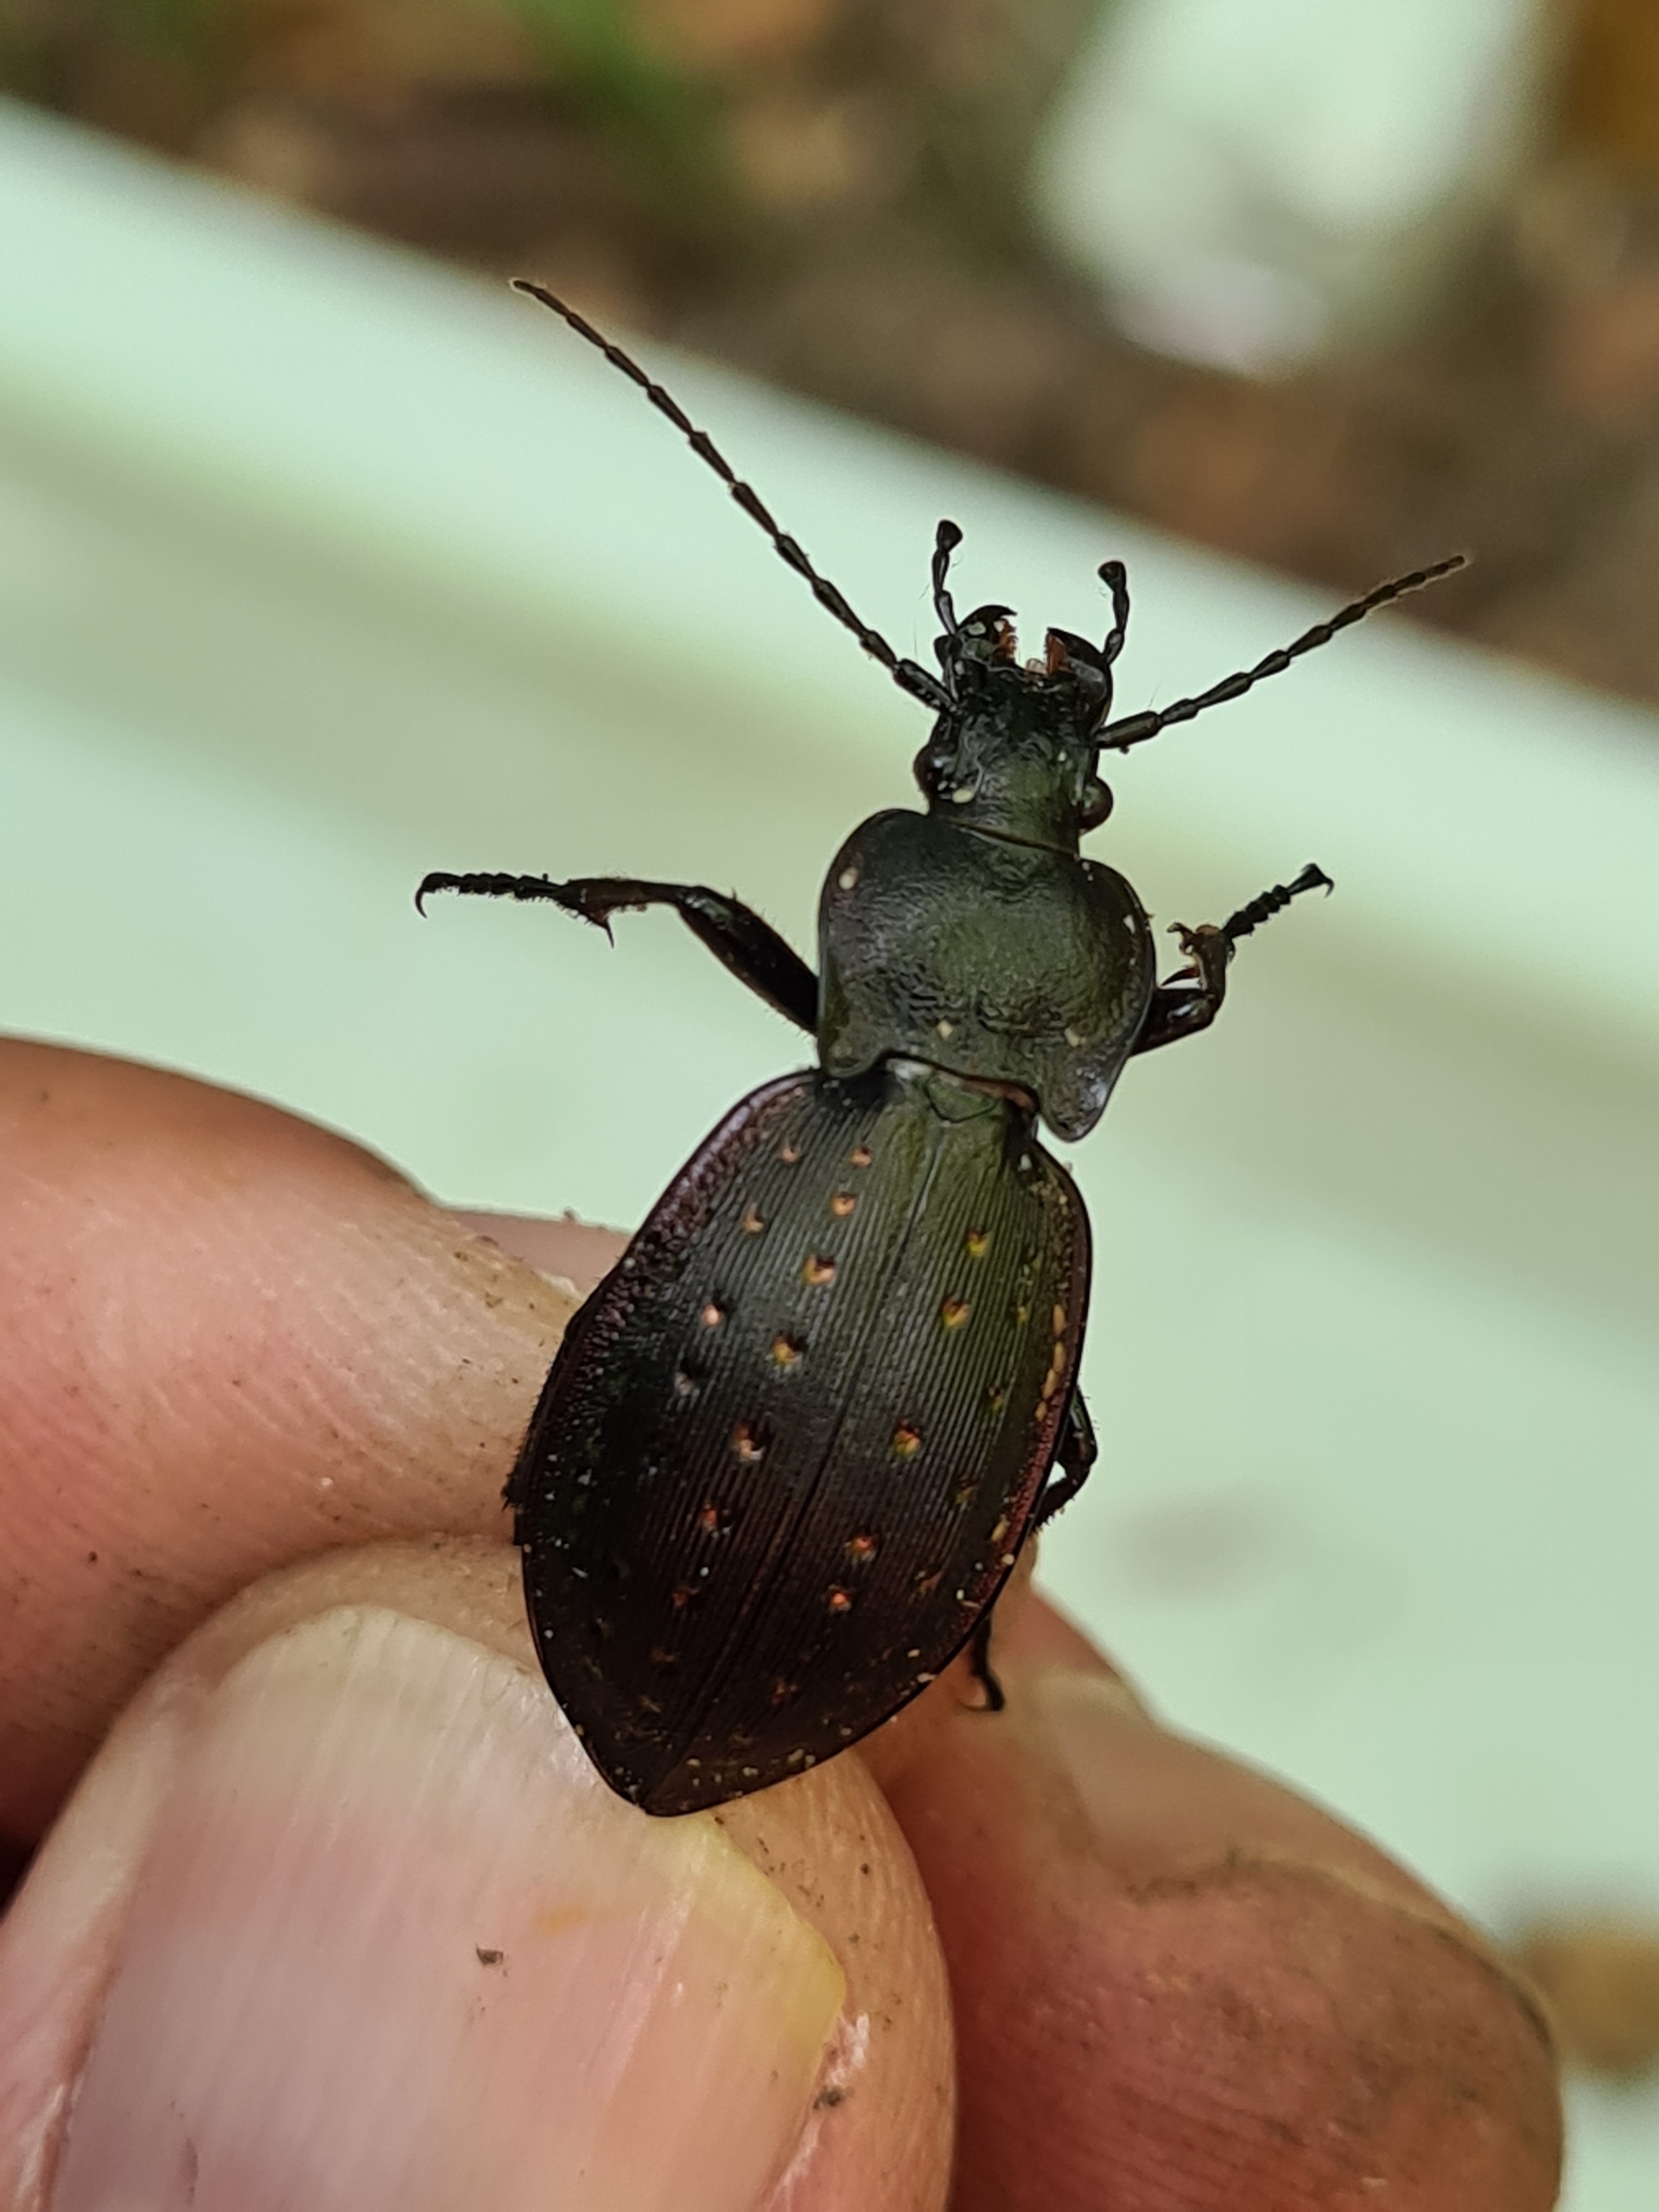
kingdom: Animalia
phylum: Arthropoda
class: Insecta
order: Coleoptera
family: Carabidae
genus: Carabus
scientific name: Carabus hortensis
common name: Guldpletløber
